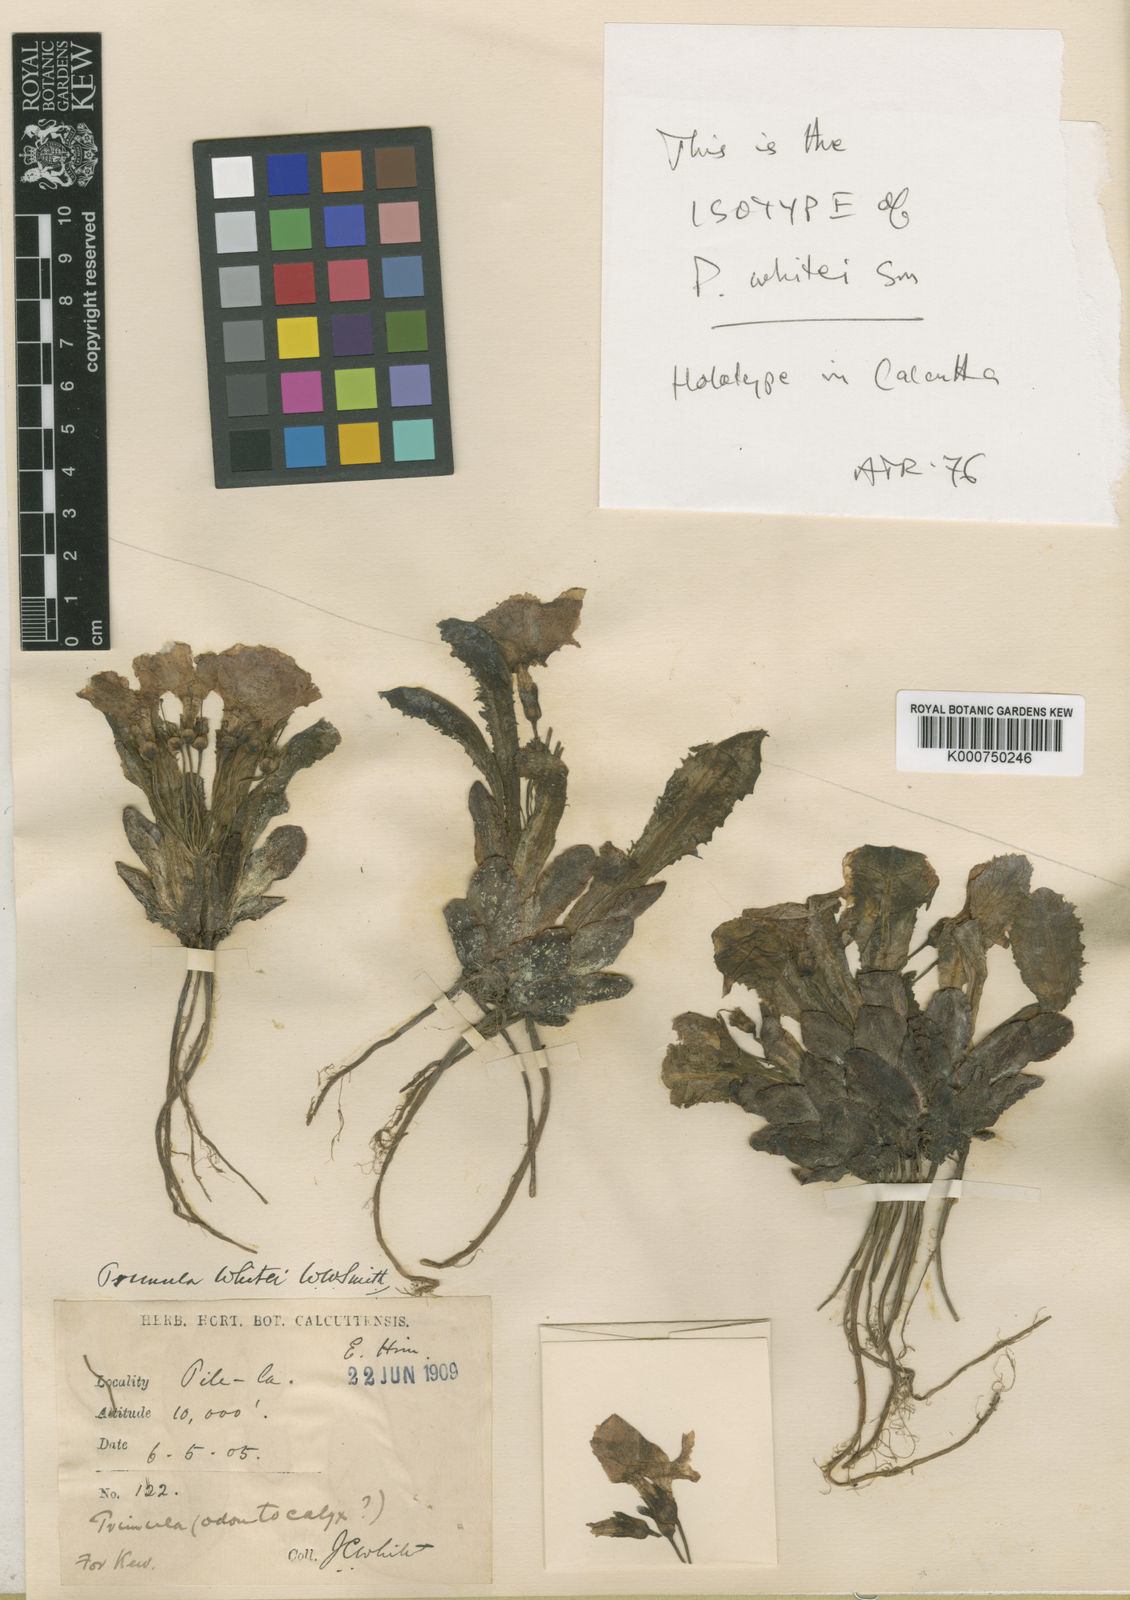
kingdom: Plantae
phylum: Tracheophyta
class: Magnoliopsida
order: Ericales
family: Primulaceae
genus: Primula
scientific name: Primula whitei
